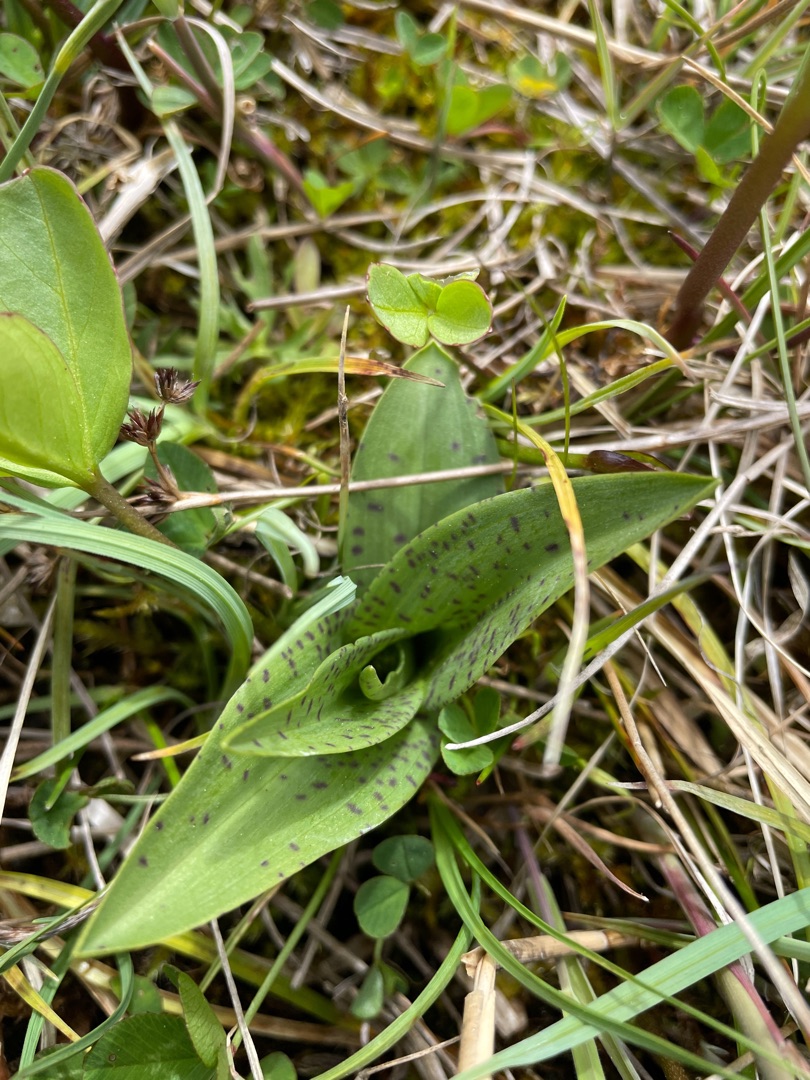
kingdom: Plantae
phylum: Tracheophyta
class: Liliopsida
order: Asparagales
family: Orchidaceae
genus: Dactylorhiza
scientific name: Dactylorhiza maculata
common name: Plettet gøgeurt
